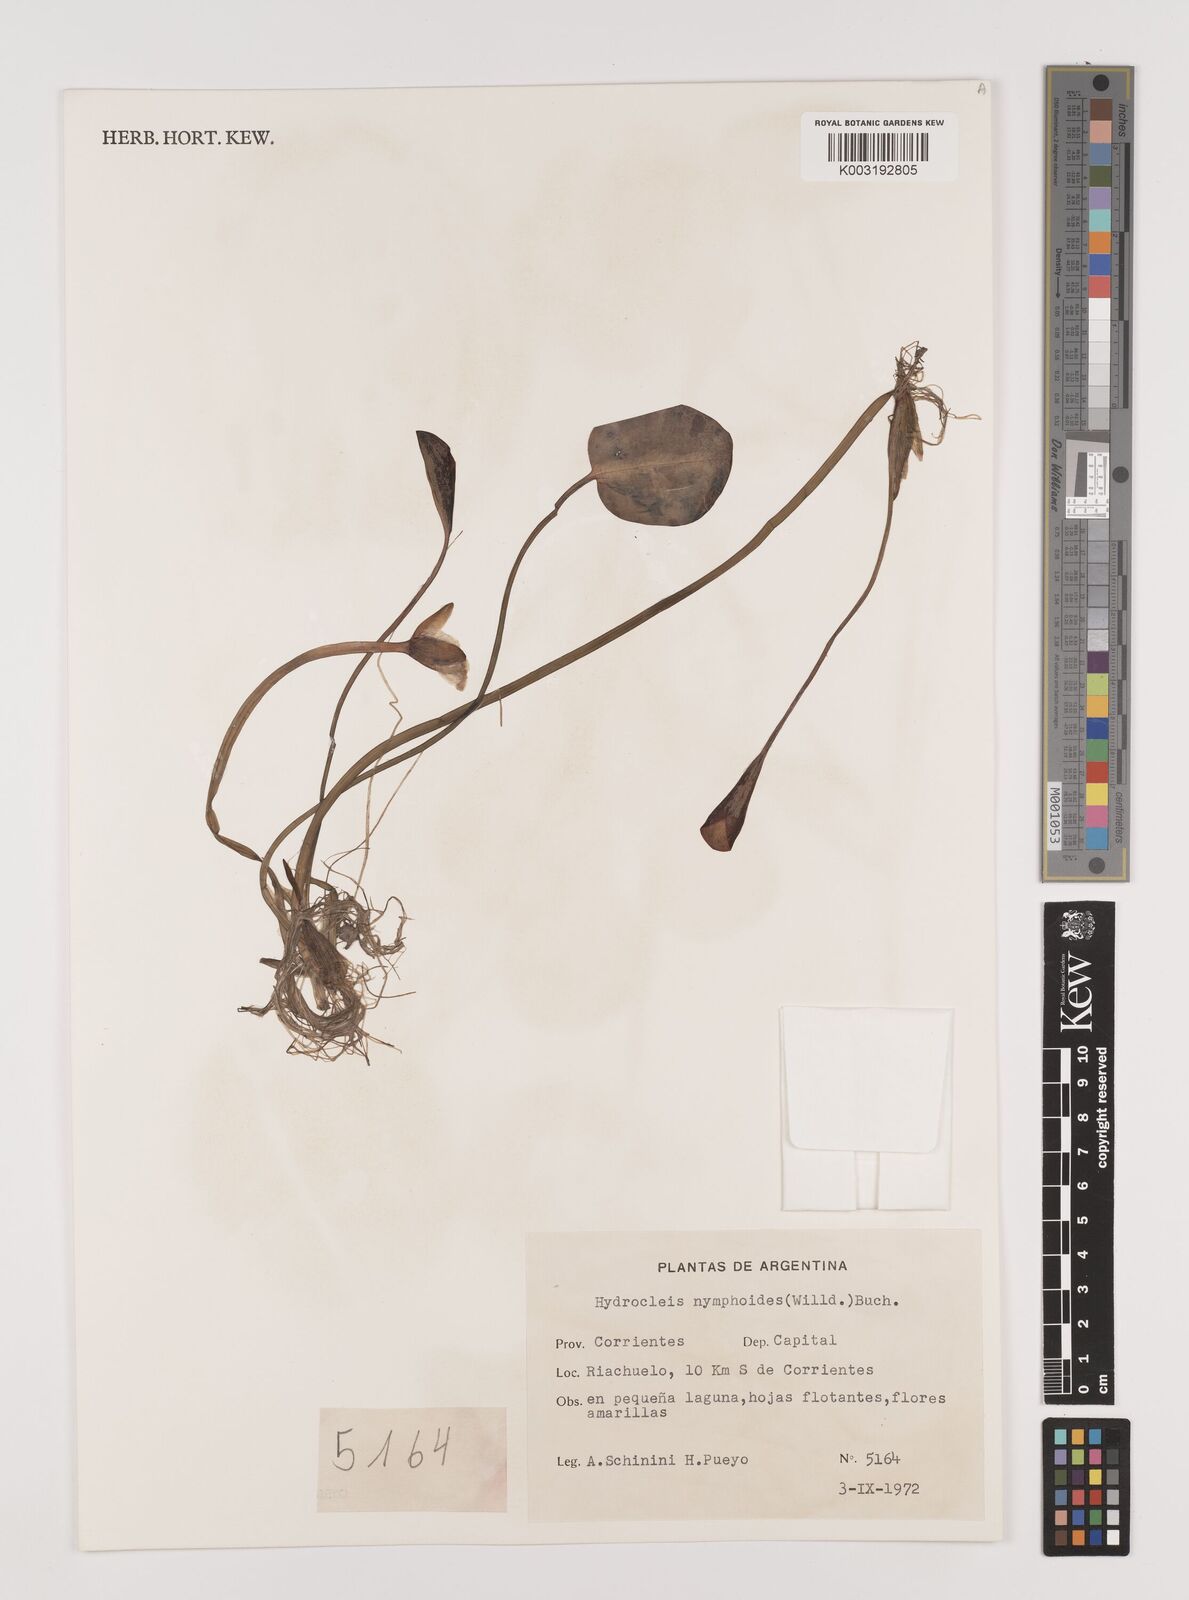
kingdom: Plantae
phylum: Tracheophyta
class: Liliopsida
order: Alismatales
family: Alismataceae
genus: Hydrocleys
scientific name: Hydrocleys nymphoides
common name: Water-poppy
